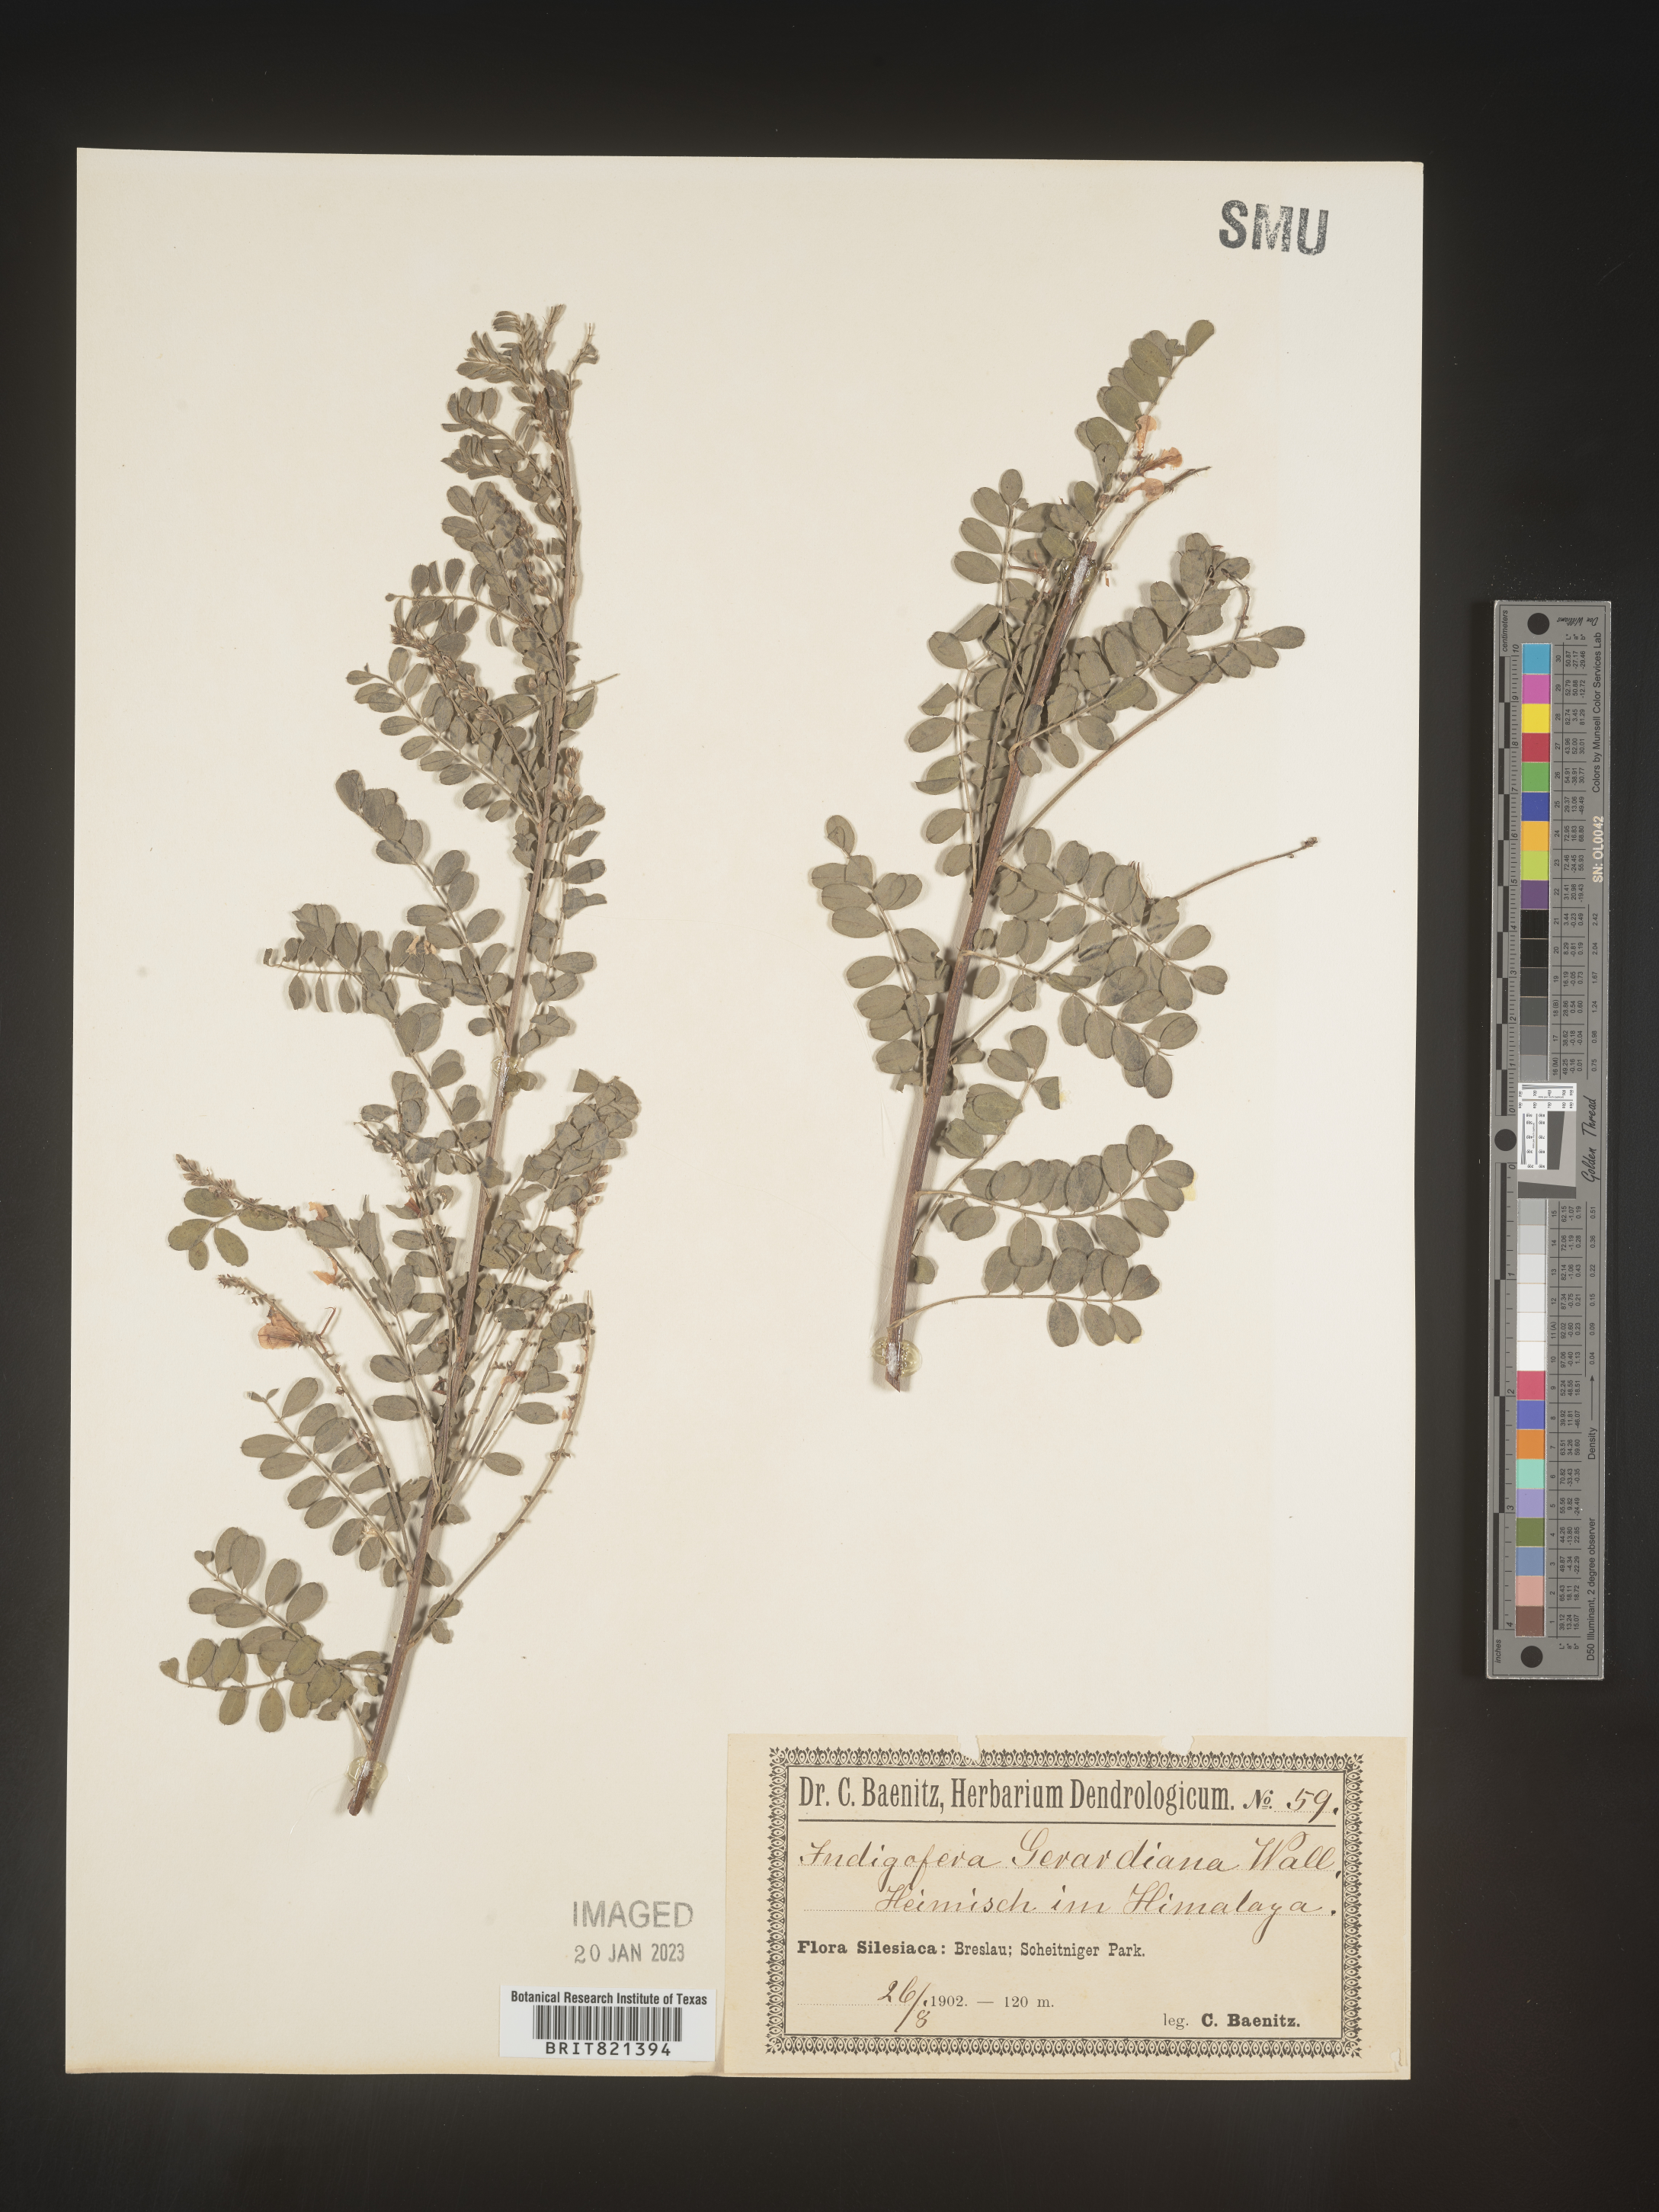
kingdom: Plantae
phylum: Tracheophyta
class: Magnoliopsida
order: Fabales
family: Fabaceae
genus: Indigofera
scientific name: Indigofera
